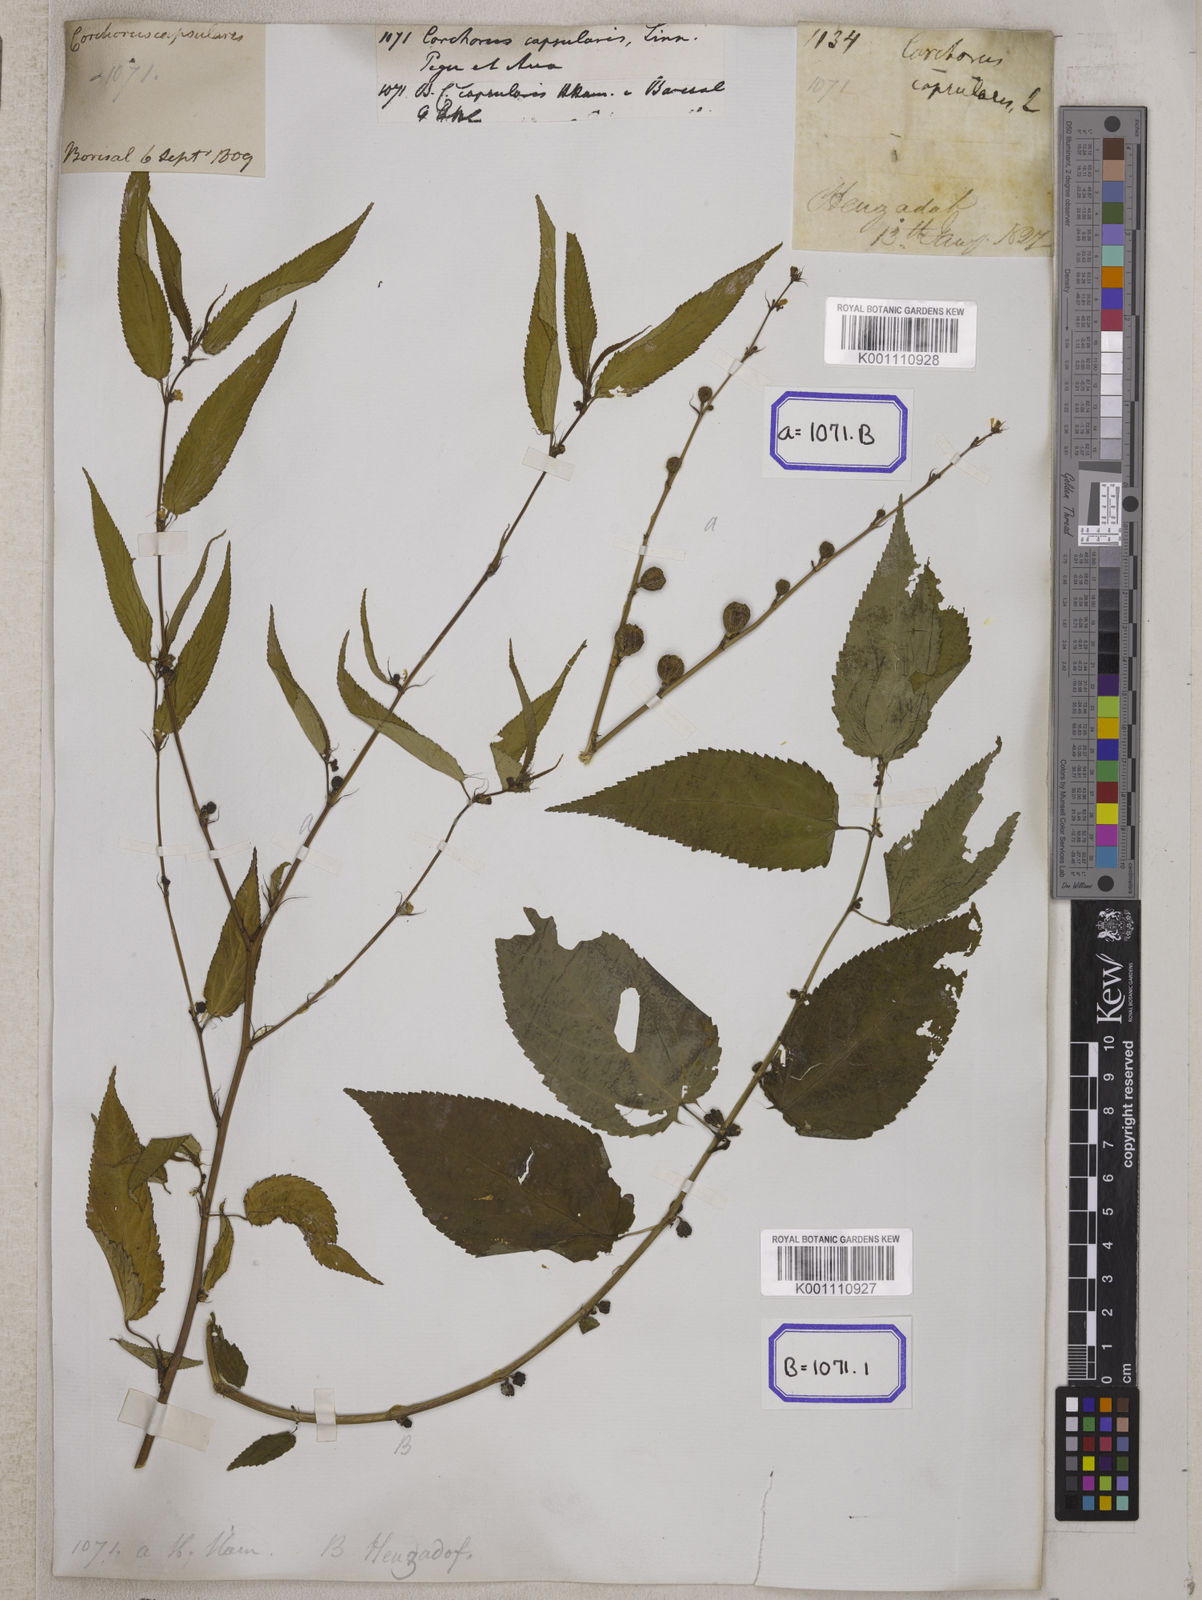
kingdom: Plantae
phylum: Tracheophyta
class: Magnoliopsida
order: Malvales
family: Malvaceae
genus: Corchorus
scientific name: Corchorus capsularis
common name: Jute
